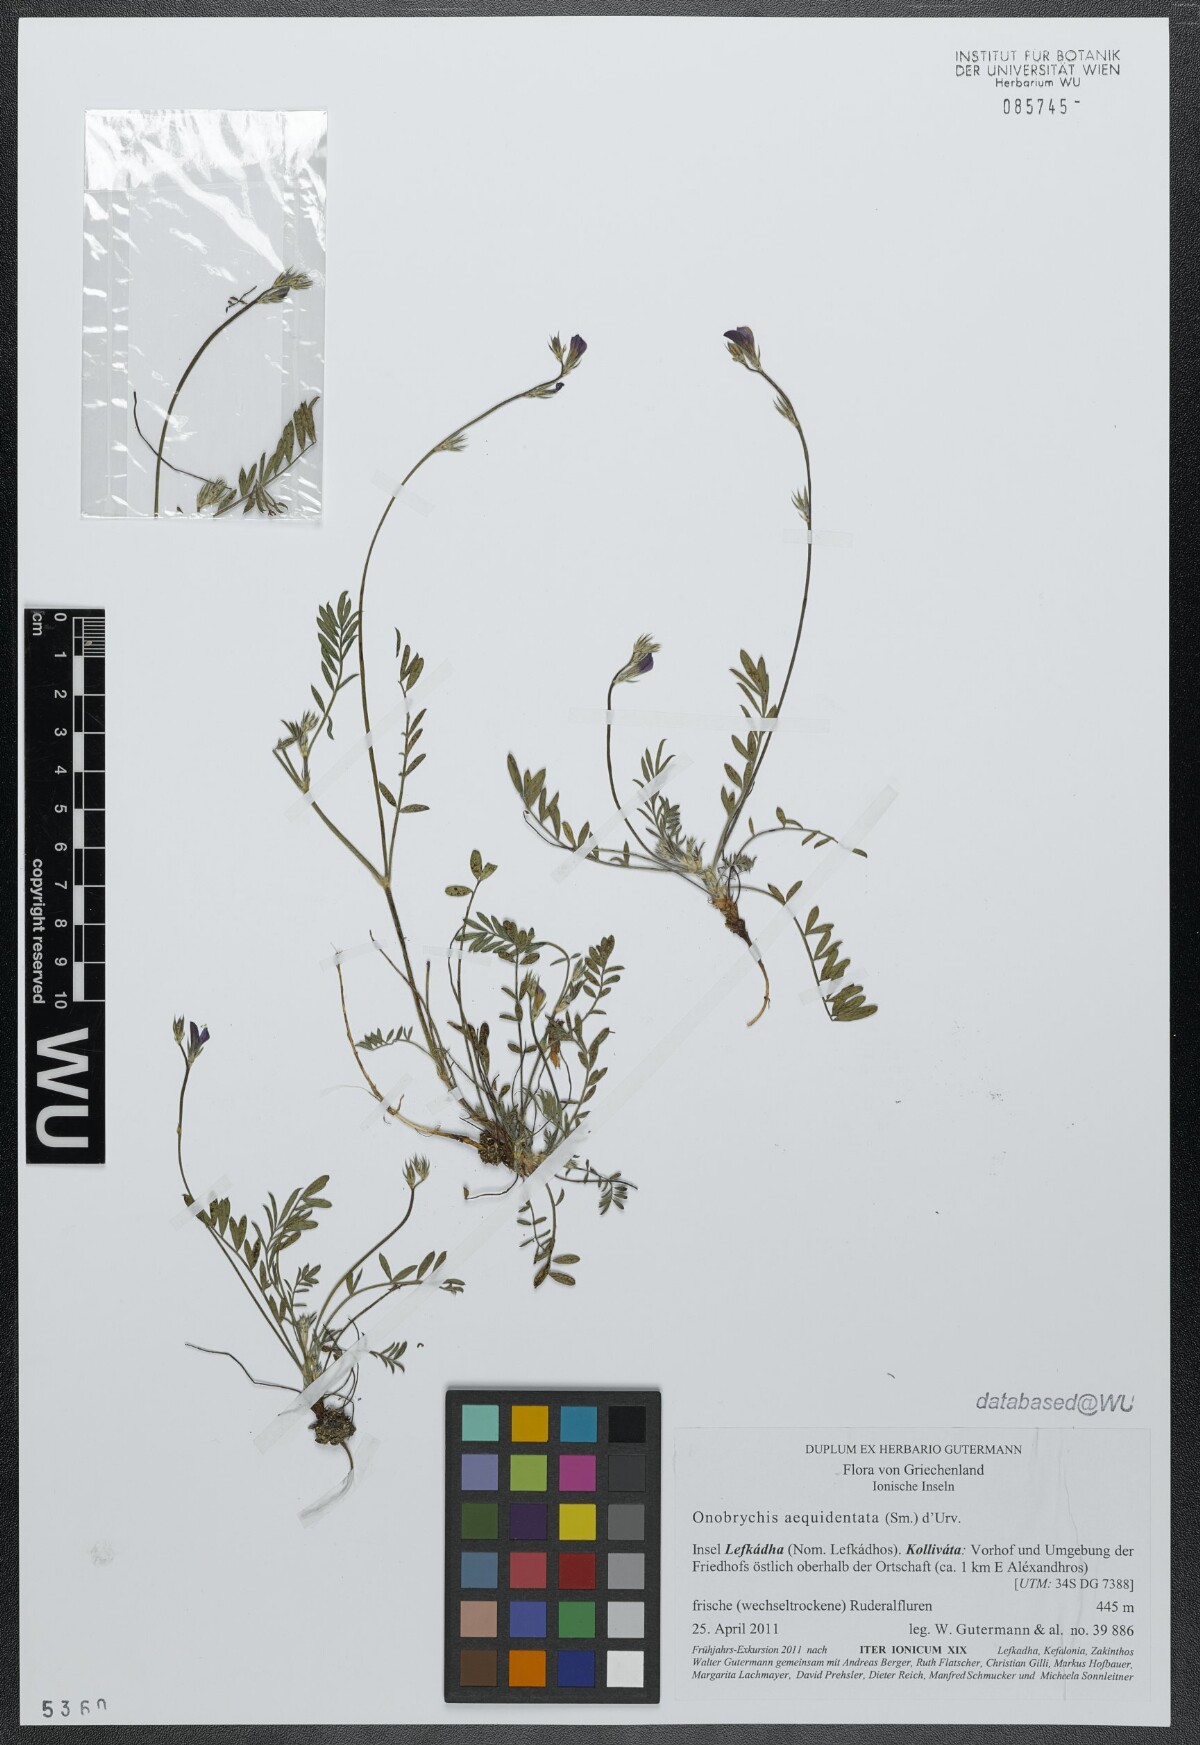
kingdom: Plantae
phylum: Tracheophyta
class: Magnoliopsida
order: Fabales
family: Fabaceae
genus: Onobrychis
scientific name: Onobrychis aequidentata
